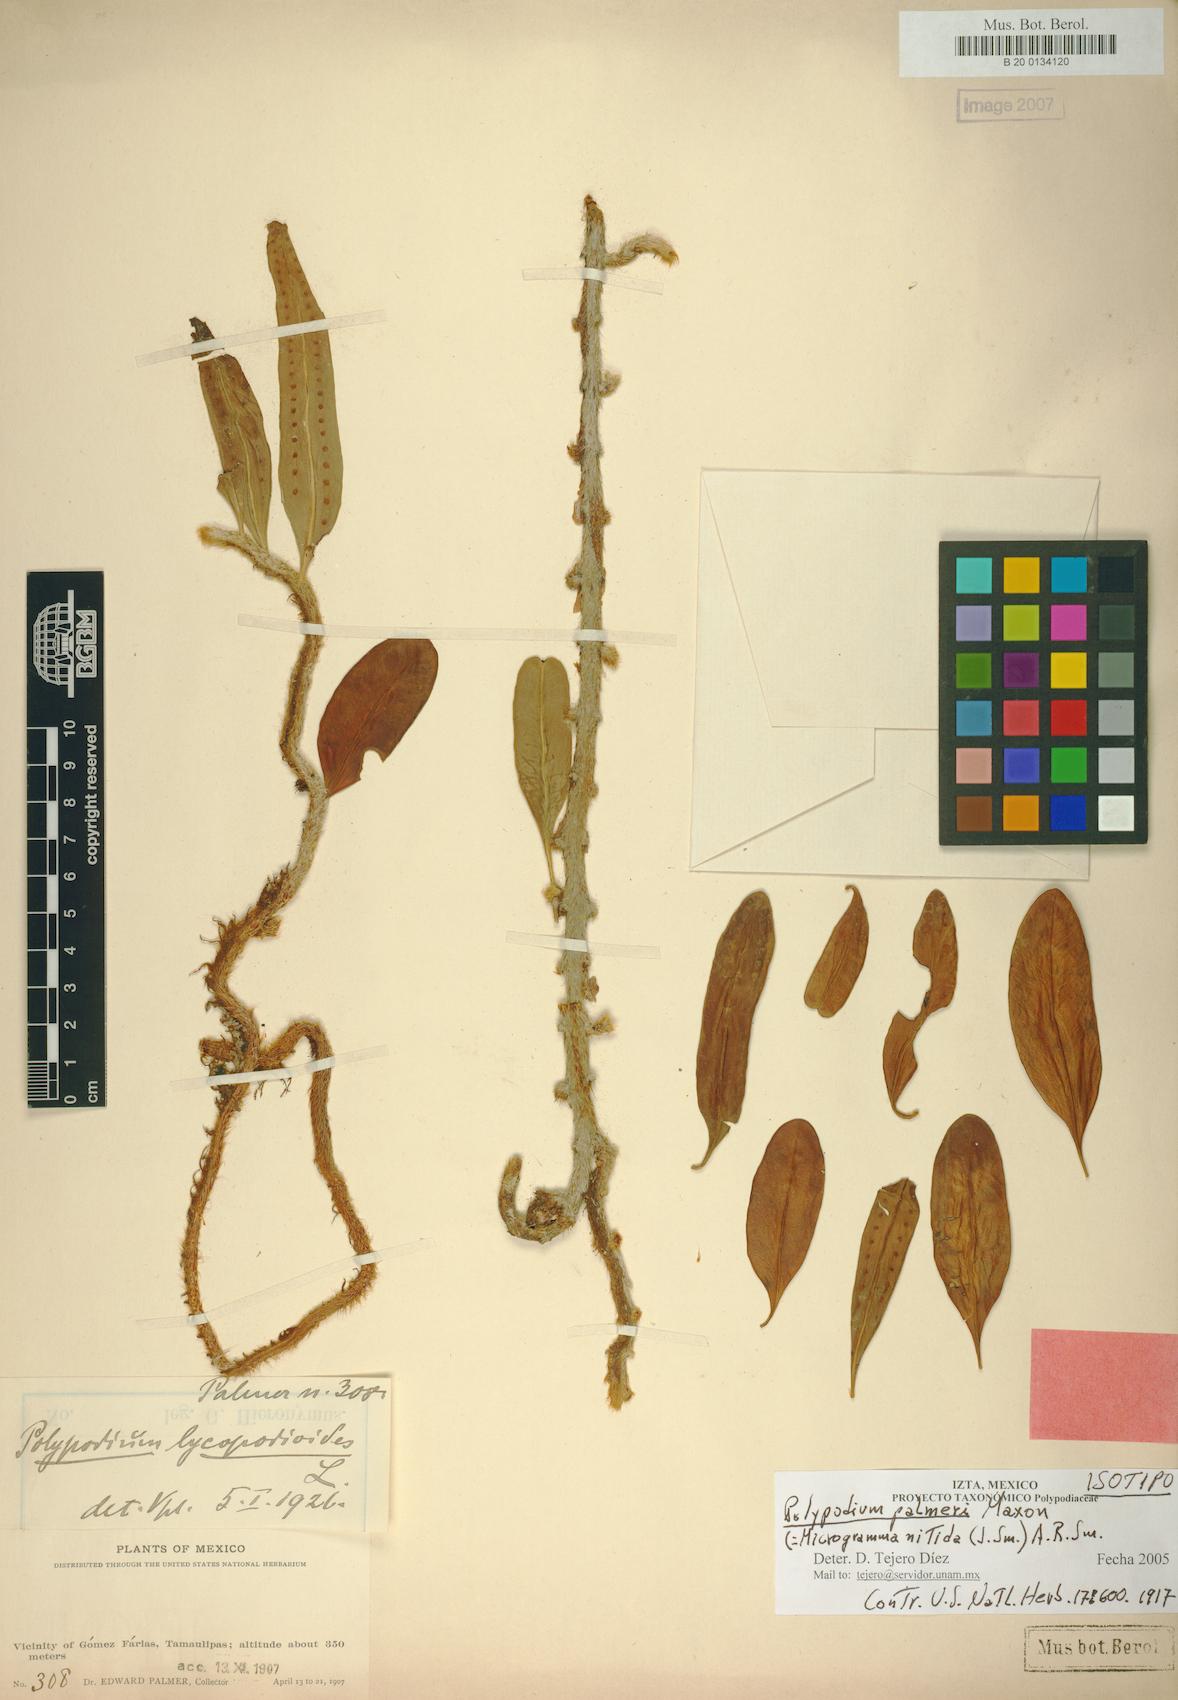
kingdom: Plantae
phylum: Tracheophyta
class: Polypodiopsida
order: Polypodiales
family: Polypodiaceae
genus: Microgramma
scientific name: Microgramma nitida
